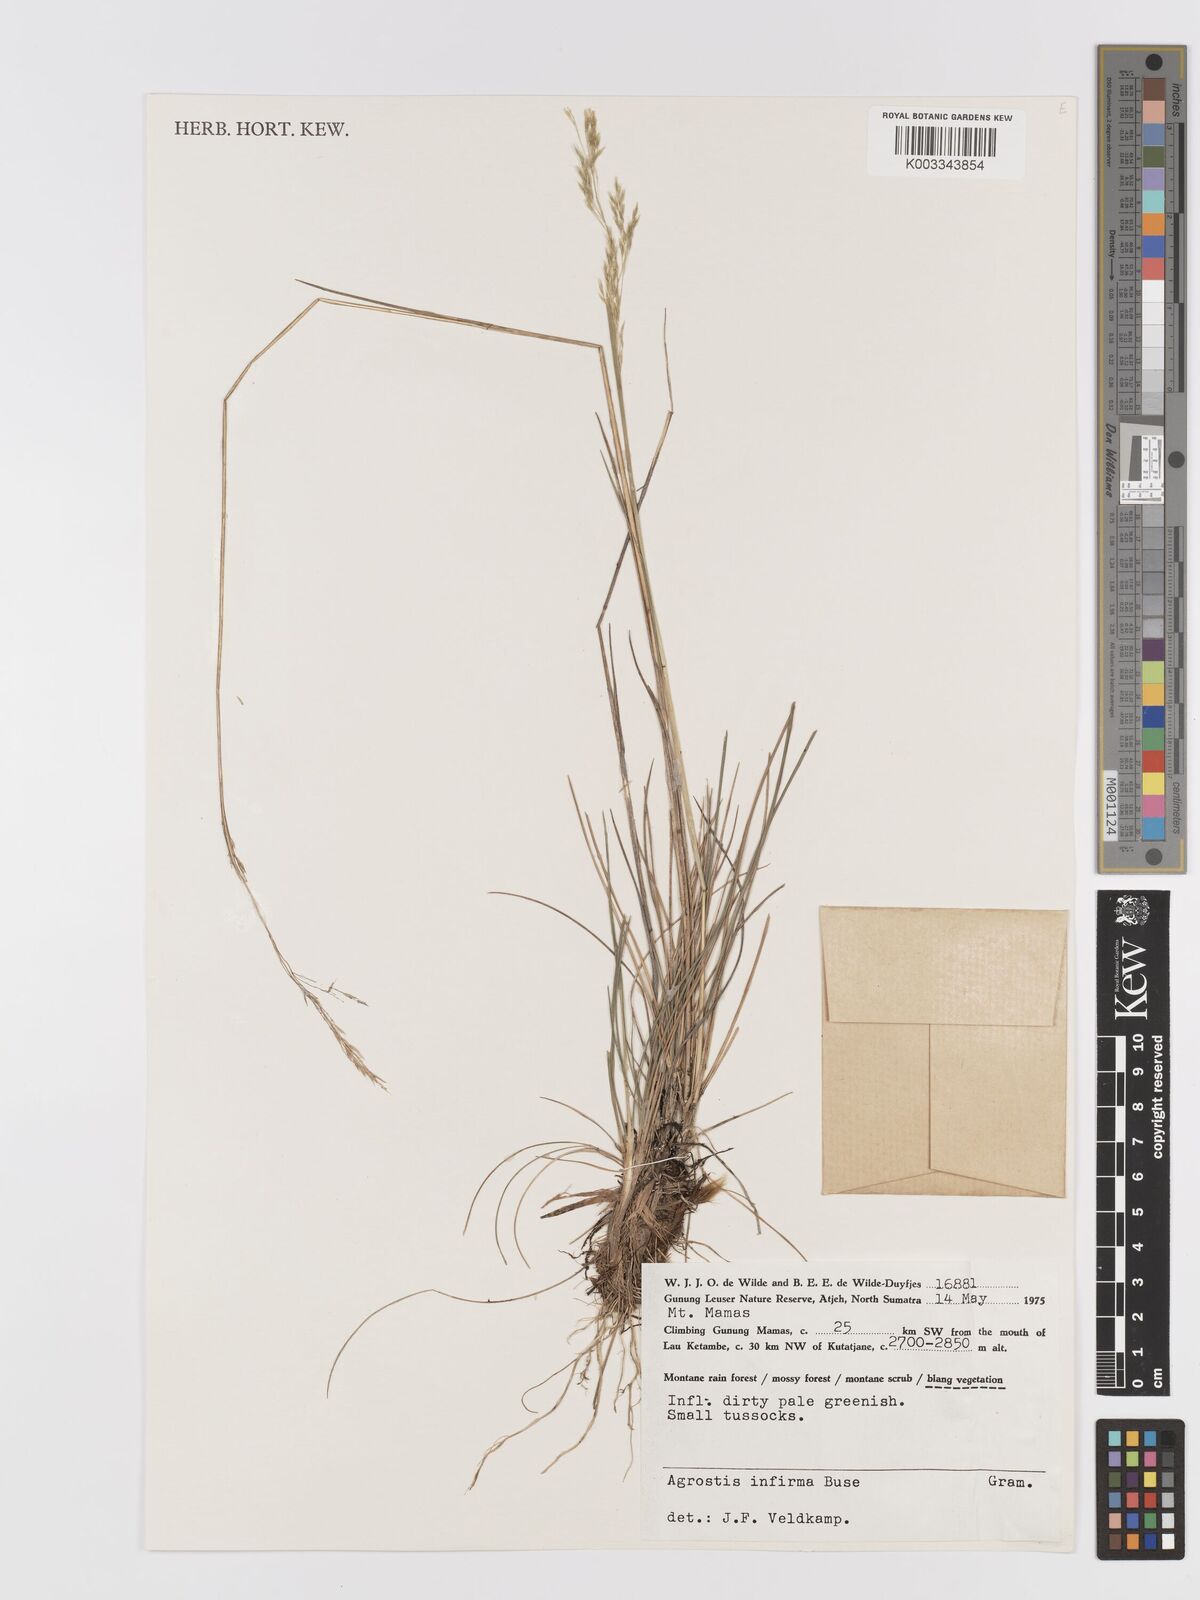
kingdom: Plantae
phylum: Tracheophyta
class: Liliopsida
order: Poales
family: Poaceae
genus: Agrostis
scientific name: Agrostis infirma
